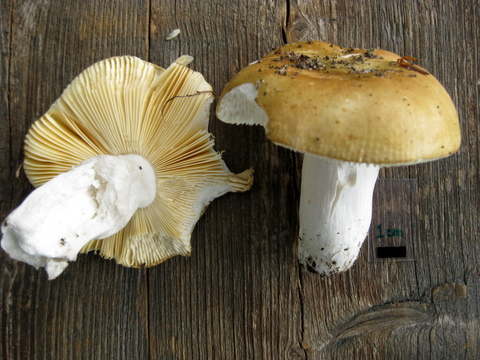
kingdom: Fungi
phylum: Basidiomycota
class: Agaricomycetes
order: Russulales
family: Russulaceae
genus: Russula
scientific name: Russula cuprea
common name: kanel-skørhat
